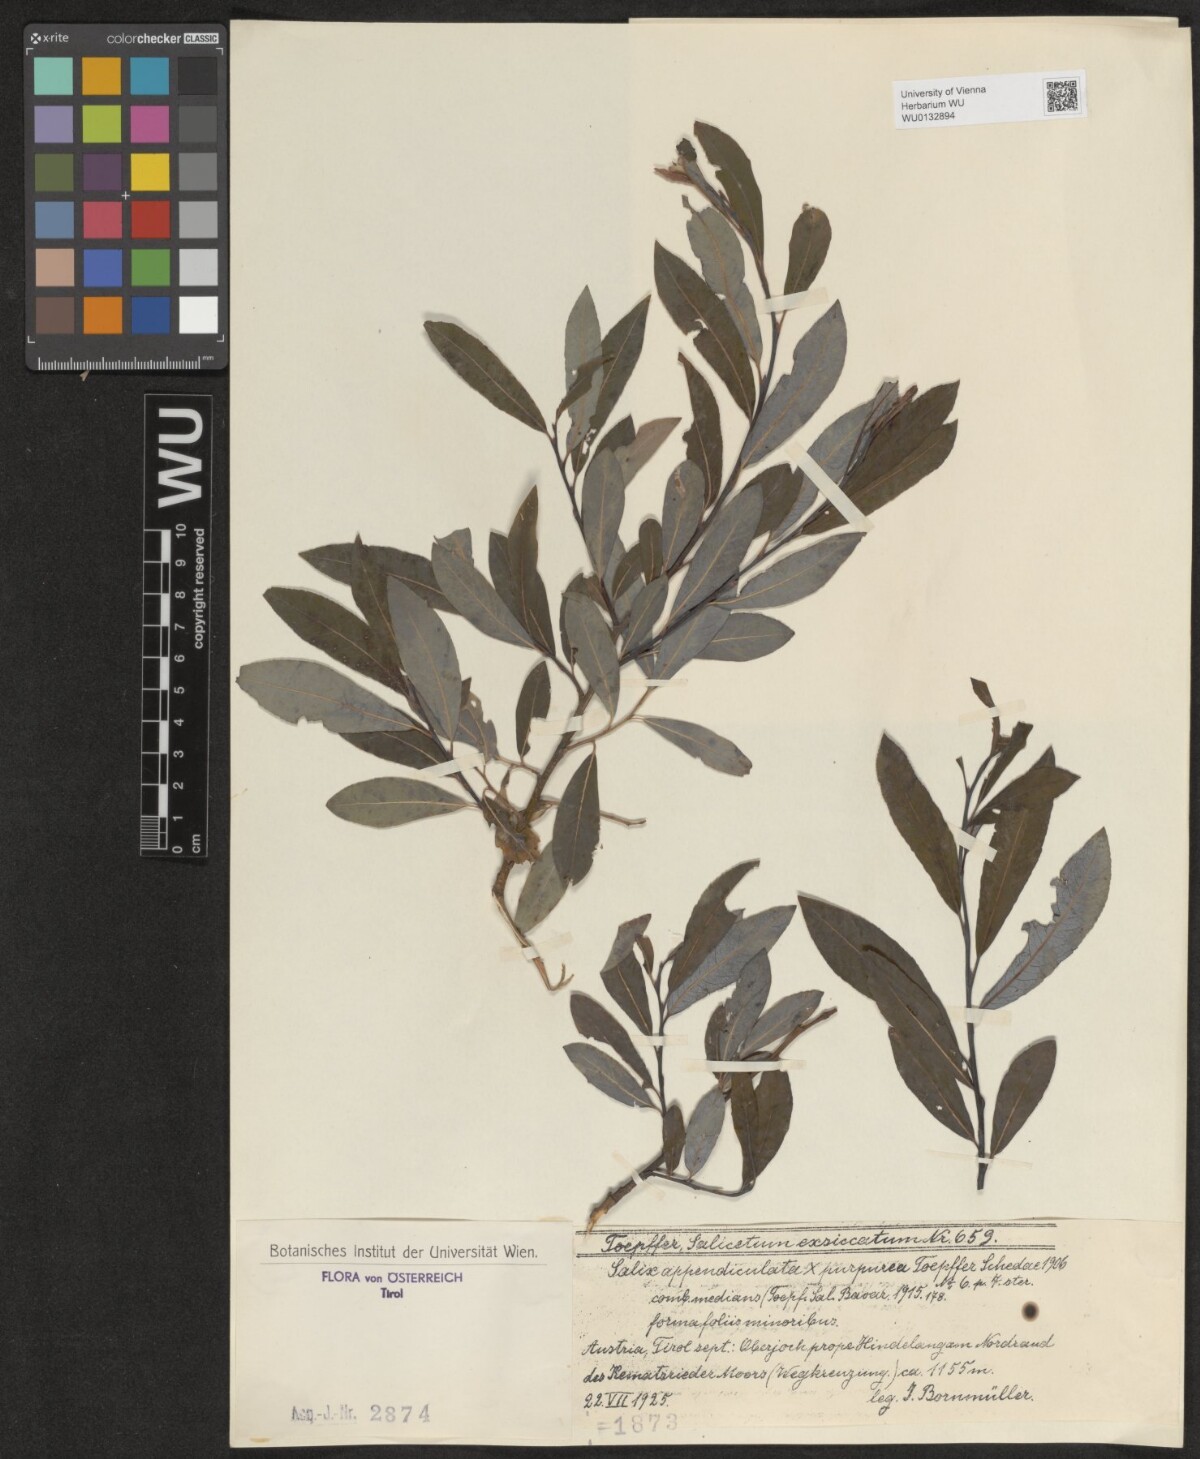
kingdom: Plantae
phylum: Tracheophyta
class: Magnoliopsida
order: Malpighiales
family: Salicaceae
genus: Salix
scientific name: Salix austriaca
